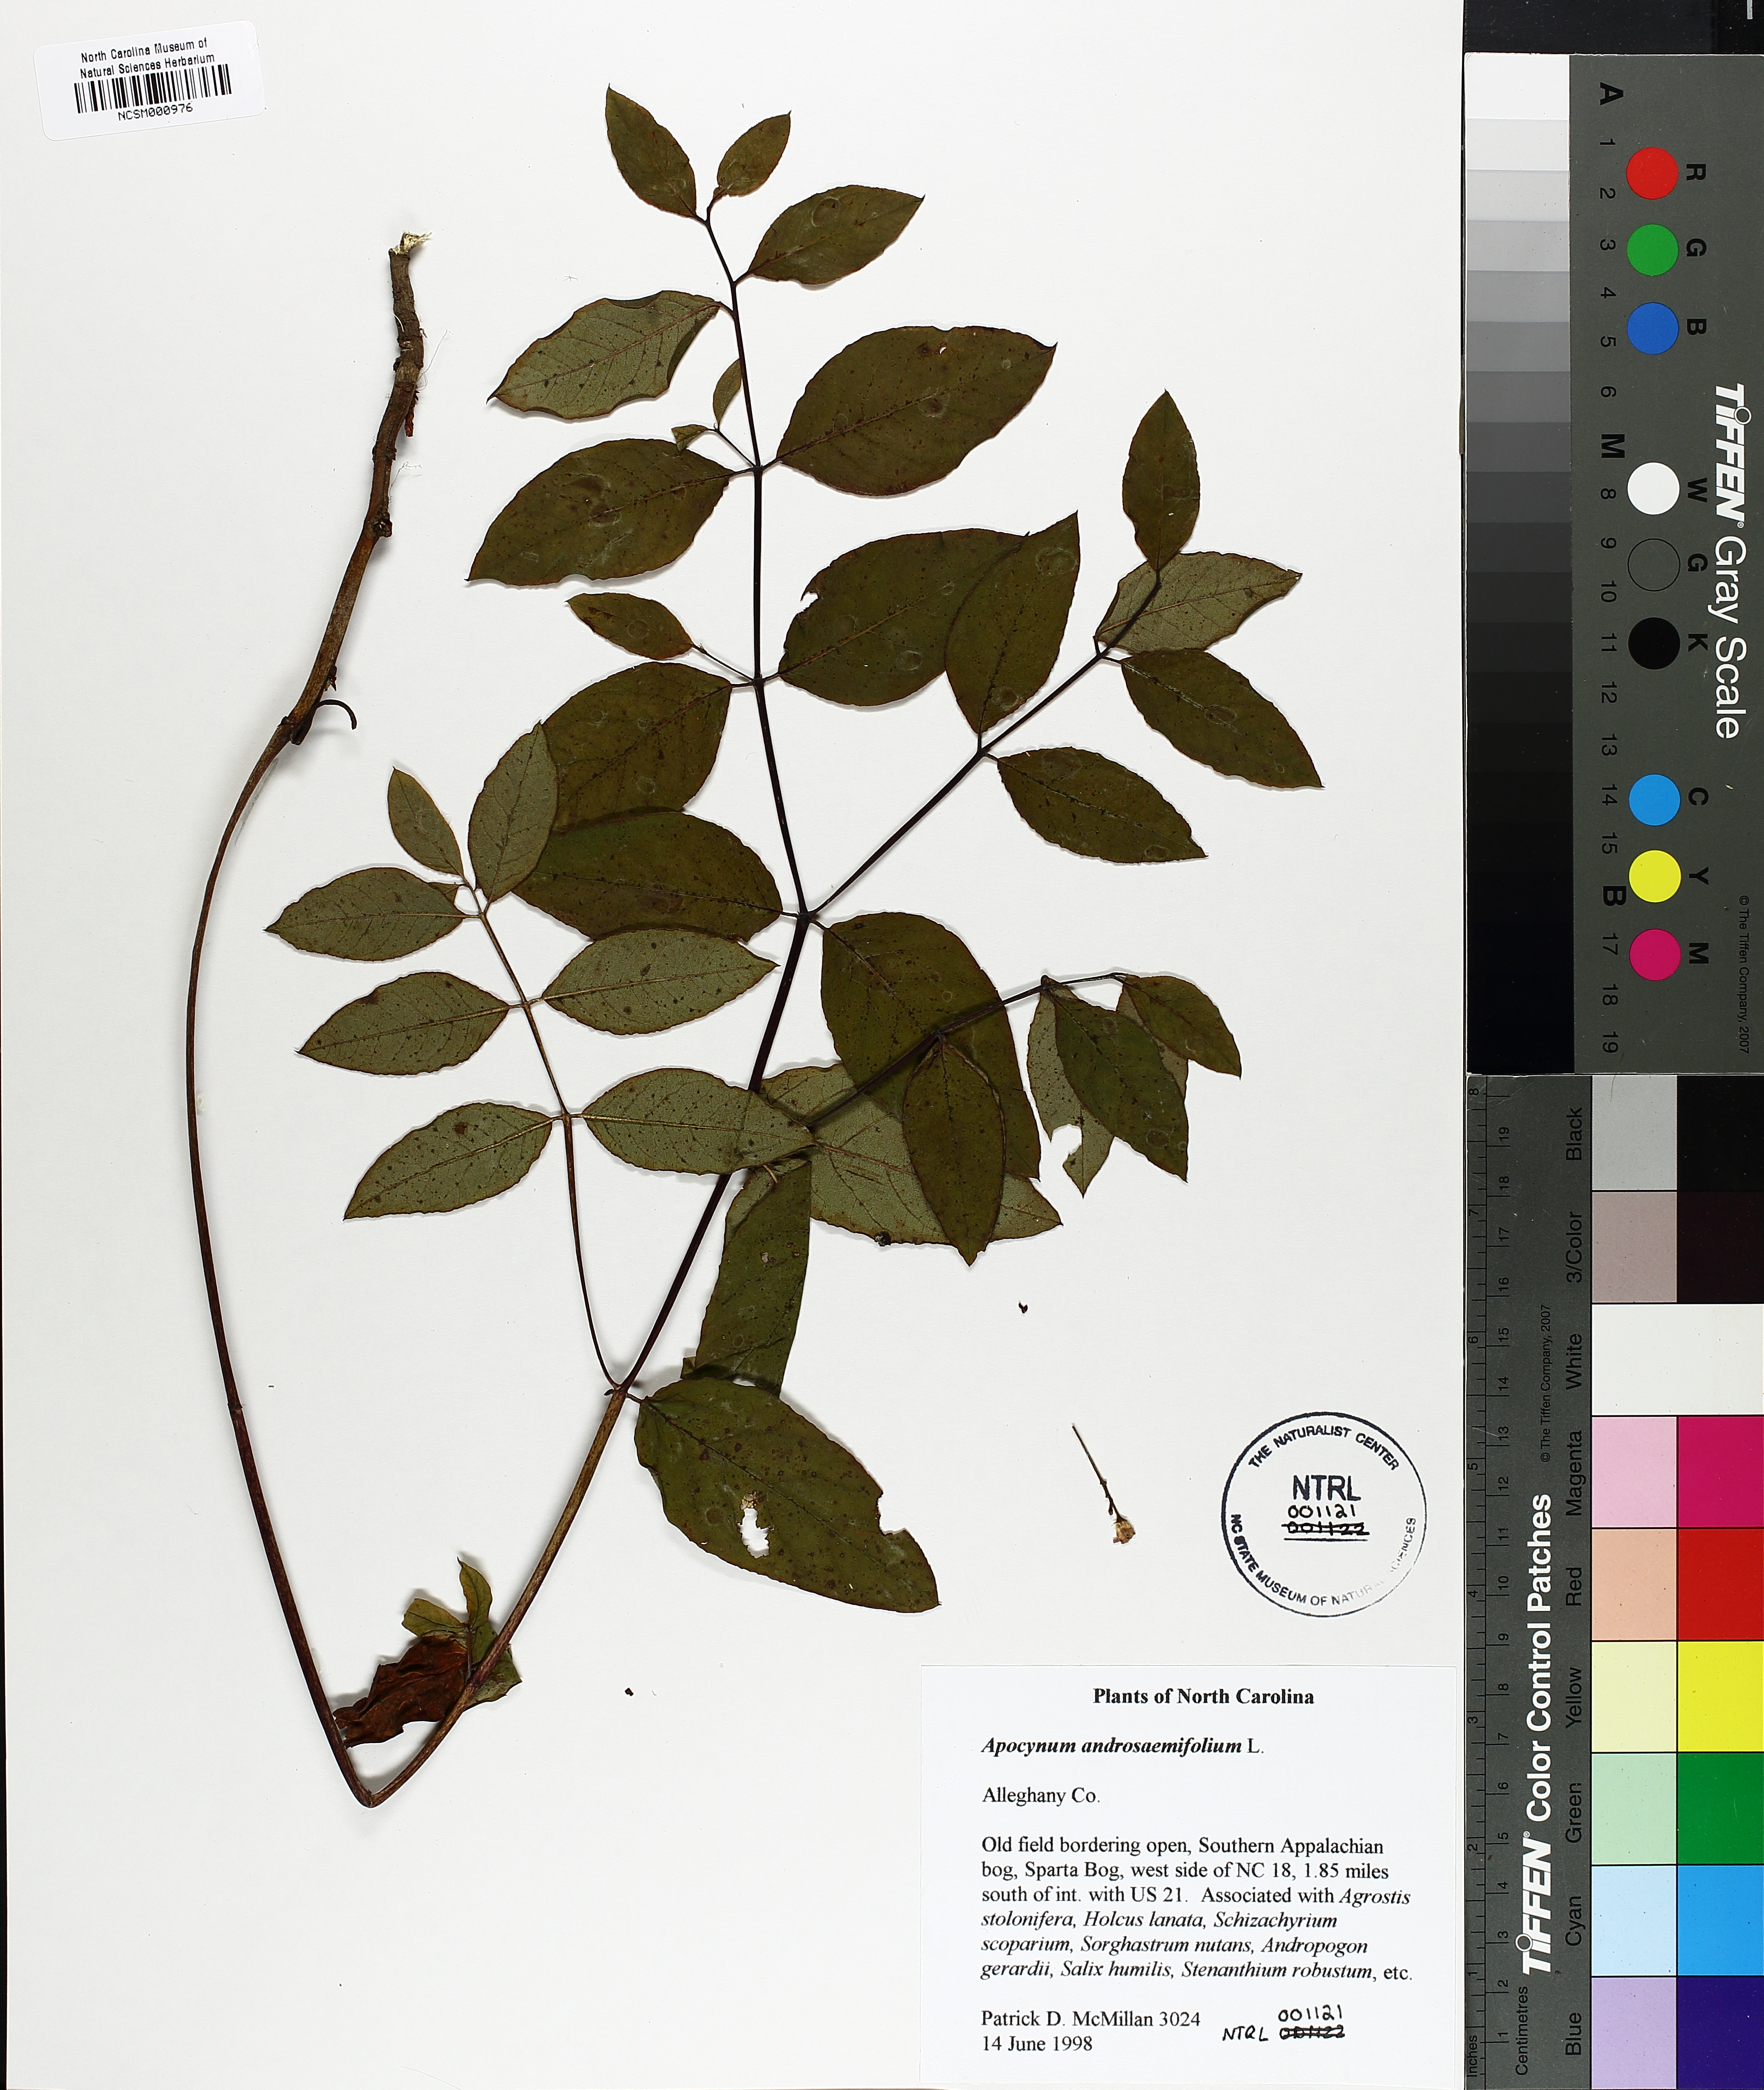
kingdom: Plantae
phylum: Tracheophyta
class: Magnoliopsida
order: Gentianales
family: Apocynaceae
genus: Apocynum
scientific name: Apocynum androsaemifolium
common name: Spreading dogbane
